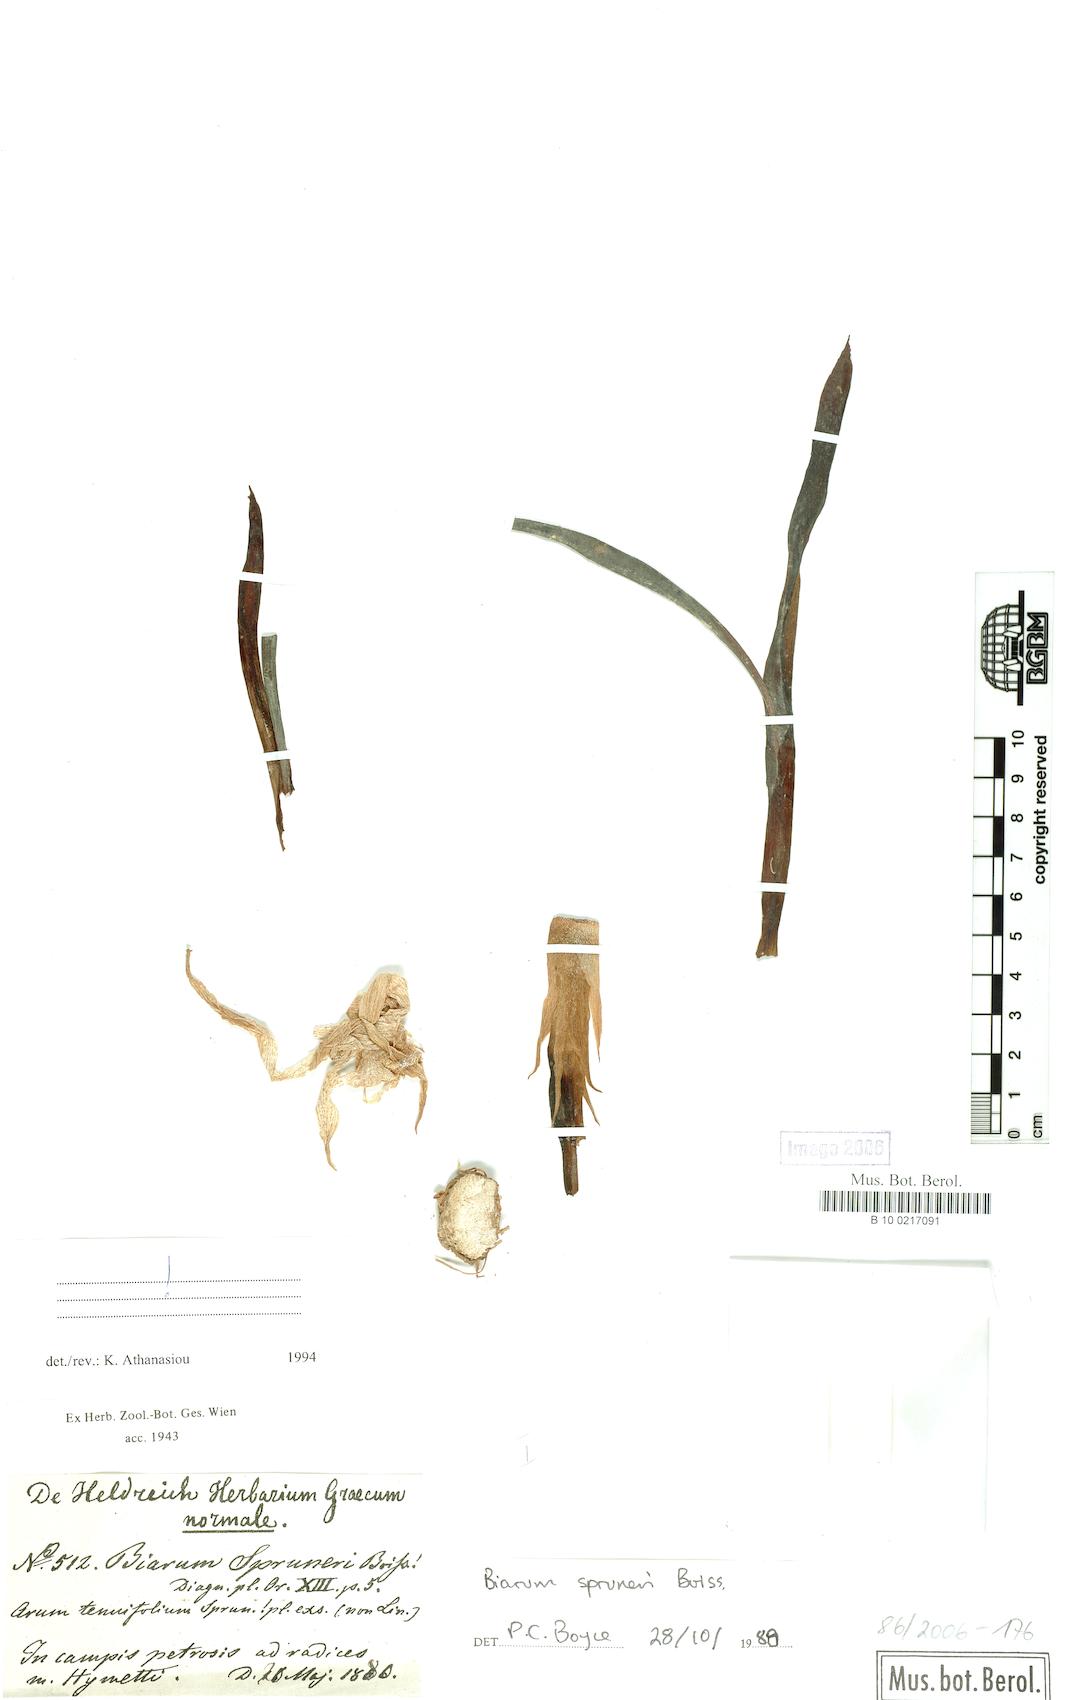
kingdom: Plantae
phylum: Tracheophyta
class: Liliopsida
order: Alismatales
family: Araceae
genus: Biarum
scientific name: Biarum rhopalospadix
